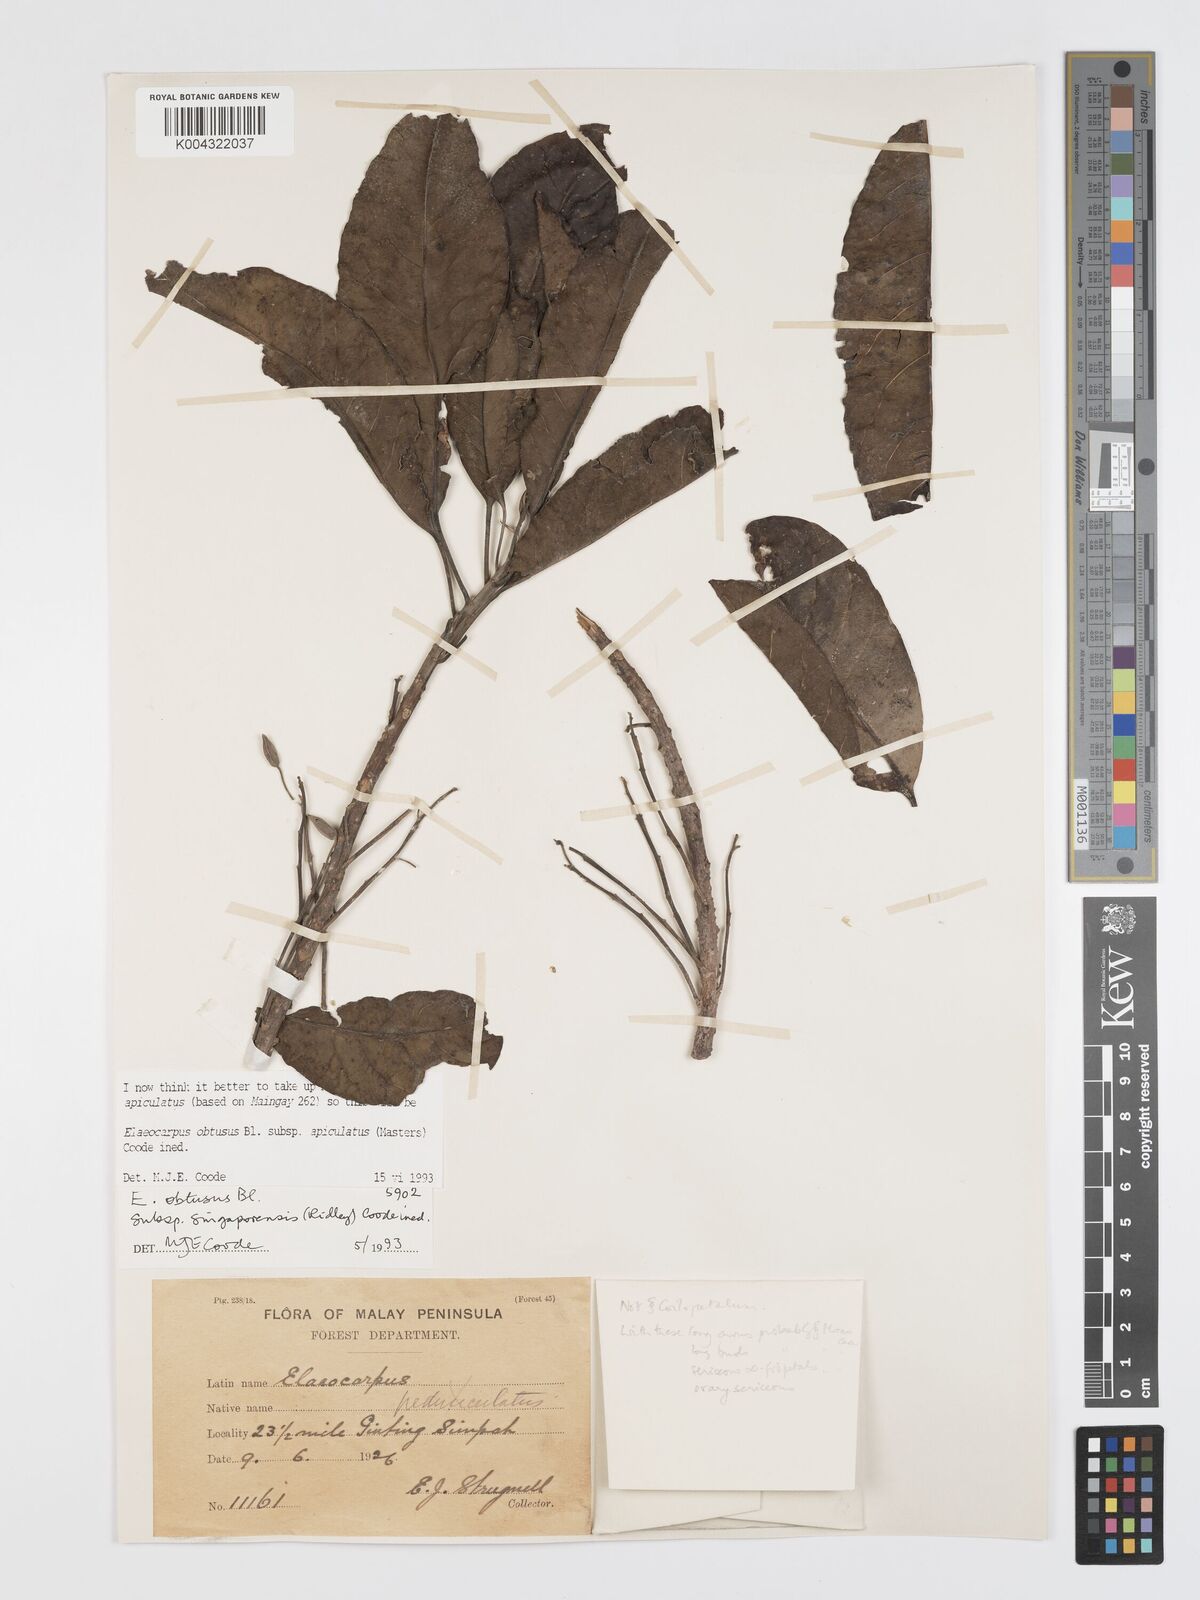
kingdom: Plantae
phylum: Tracheophyta
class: Magnoliopsida
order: Oxalidales
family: Elaeocarpaceae
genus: Elaeocarpus
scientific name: Elaeocarpus obtusus
